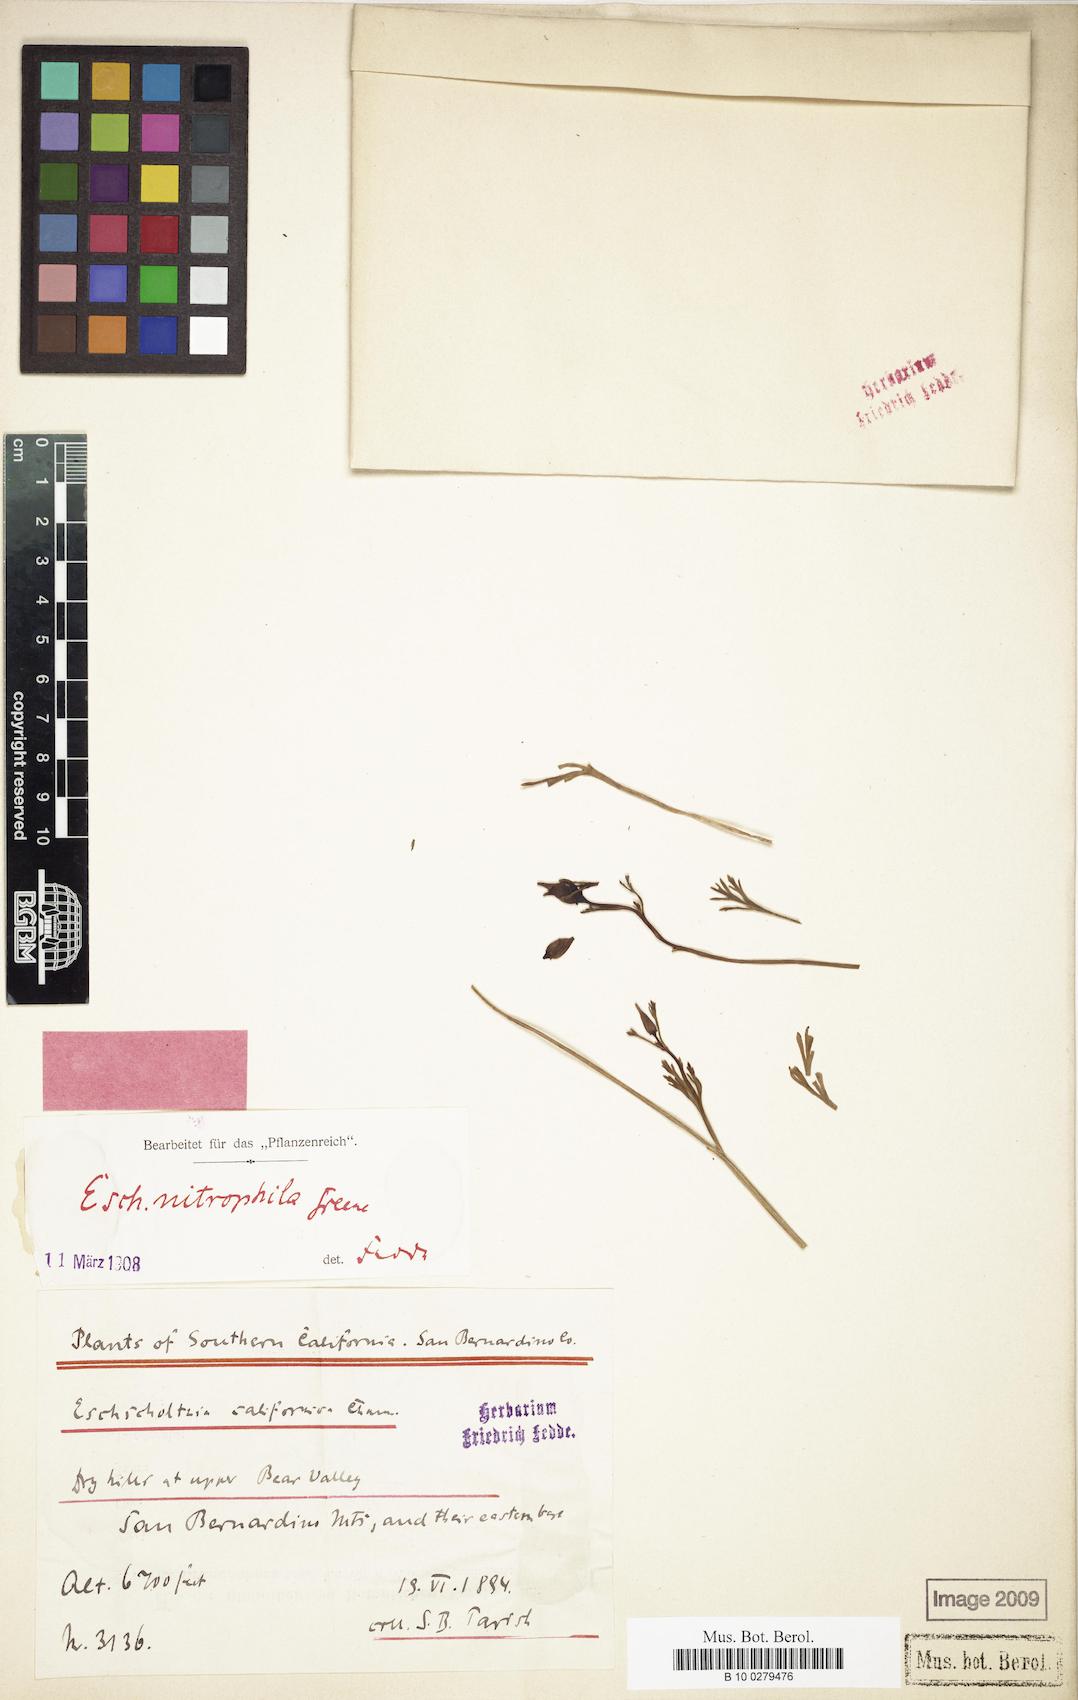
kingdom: Plantae
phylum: Tracheophyta
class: Magnoliopsida
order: Ranunculales
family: Papaveraceae
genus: Eschscholzia
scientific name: Eschscholzia californica
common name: California poppy
